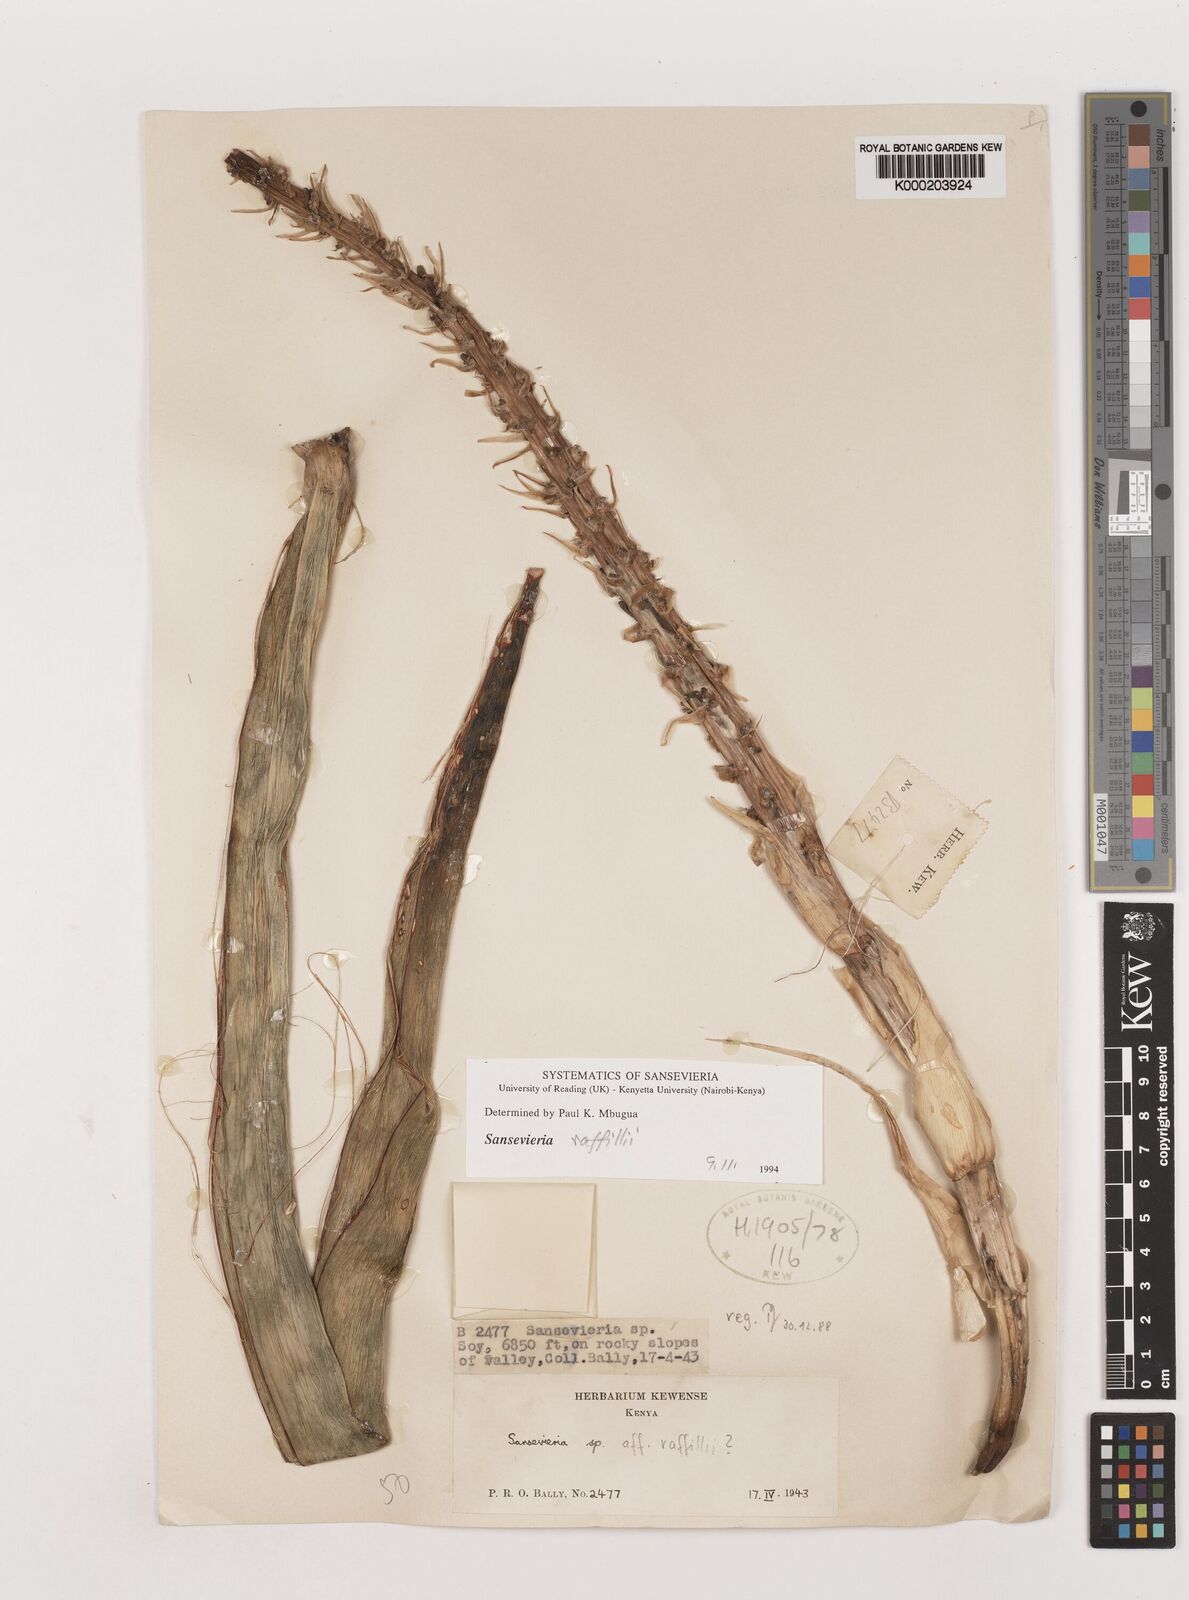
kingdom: Plantae
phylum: Tracheophyta
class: Liliopsida
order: Asparagales
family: Asparagaceae
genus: Dracaena
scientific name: Dracaena raffillii
